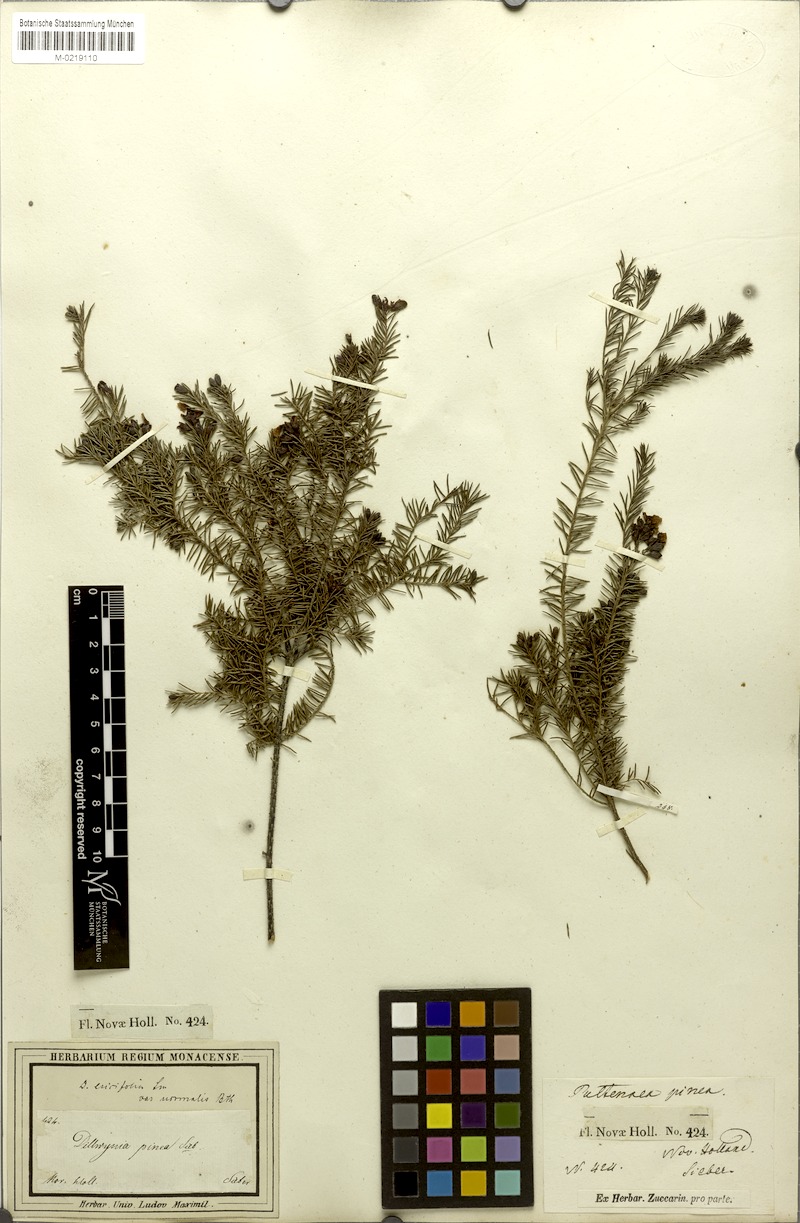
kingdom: Plantae
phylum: Tracheophyta
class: Magnoliopsida
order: Fabales
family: Fabaceae
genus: Dillwynia
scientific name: Dillwynia retorta
